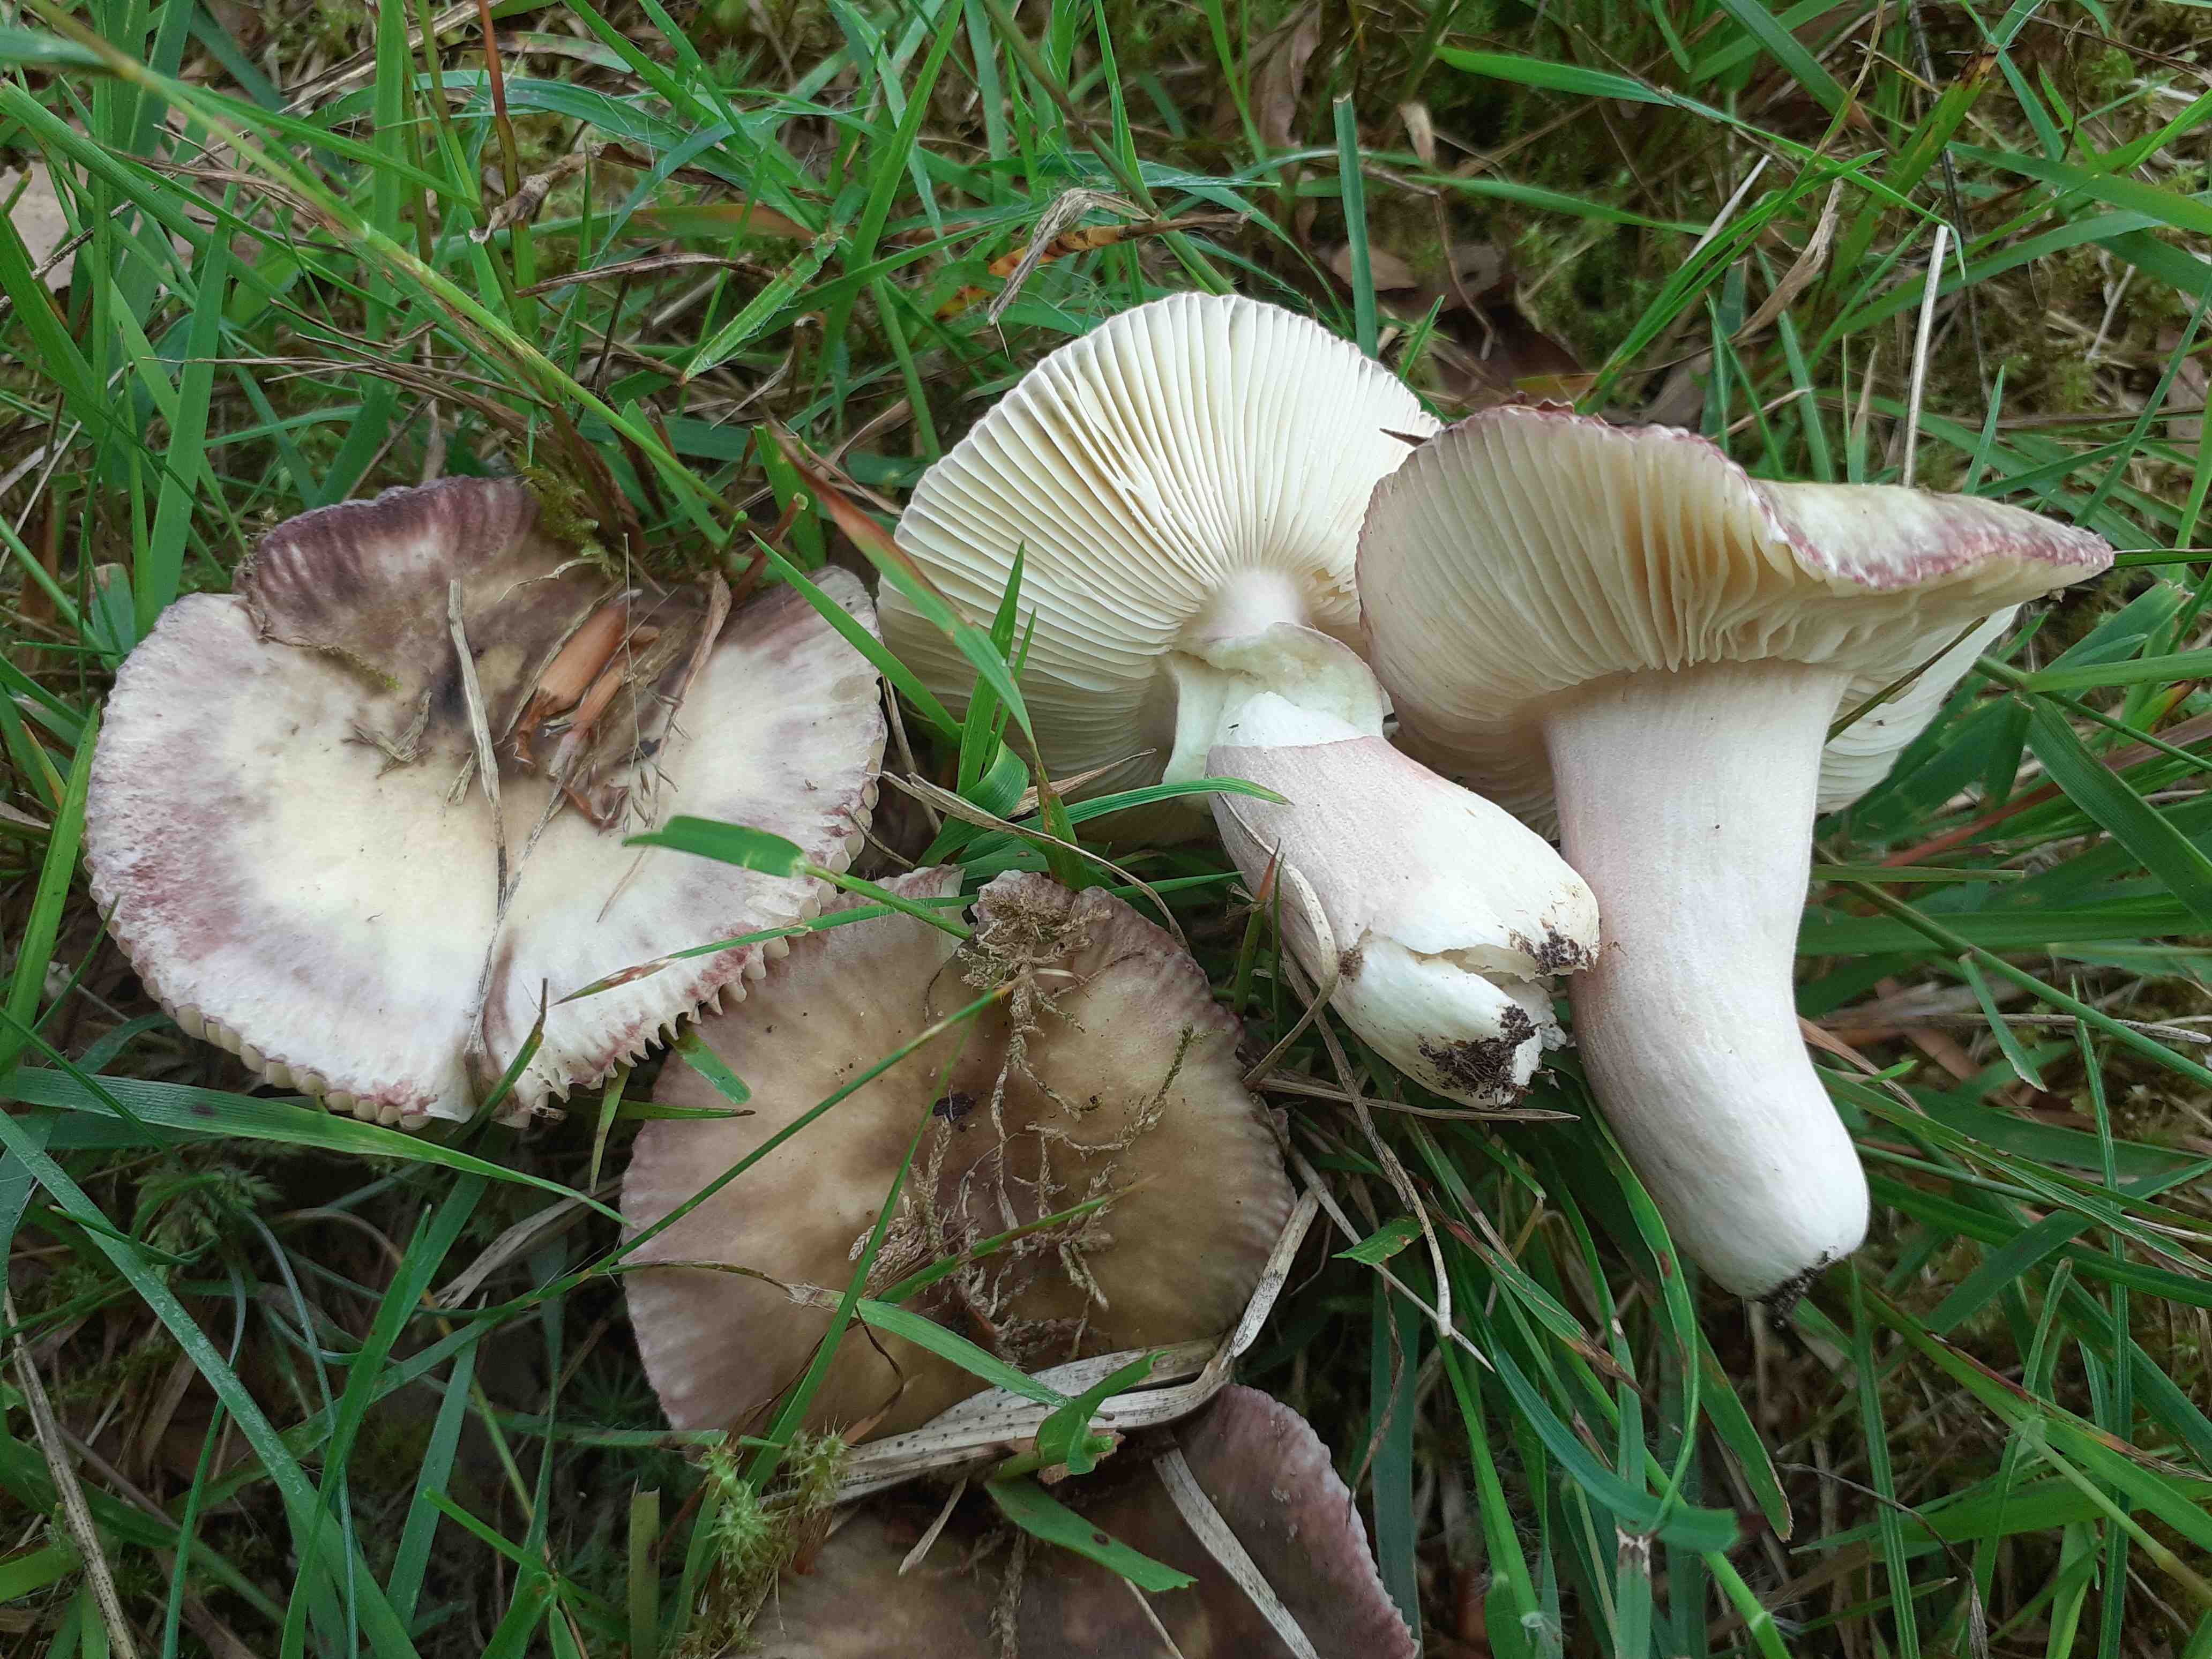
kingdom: Fungi
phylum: Basidiomycota
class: Agaricomycetes
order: Russulales
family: Russulaceae
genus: Russula
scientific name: Russula
